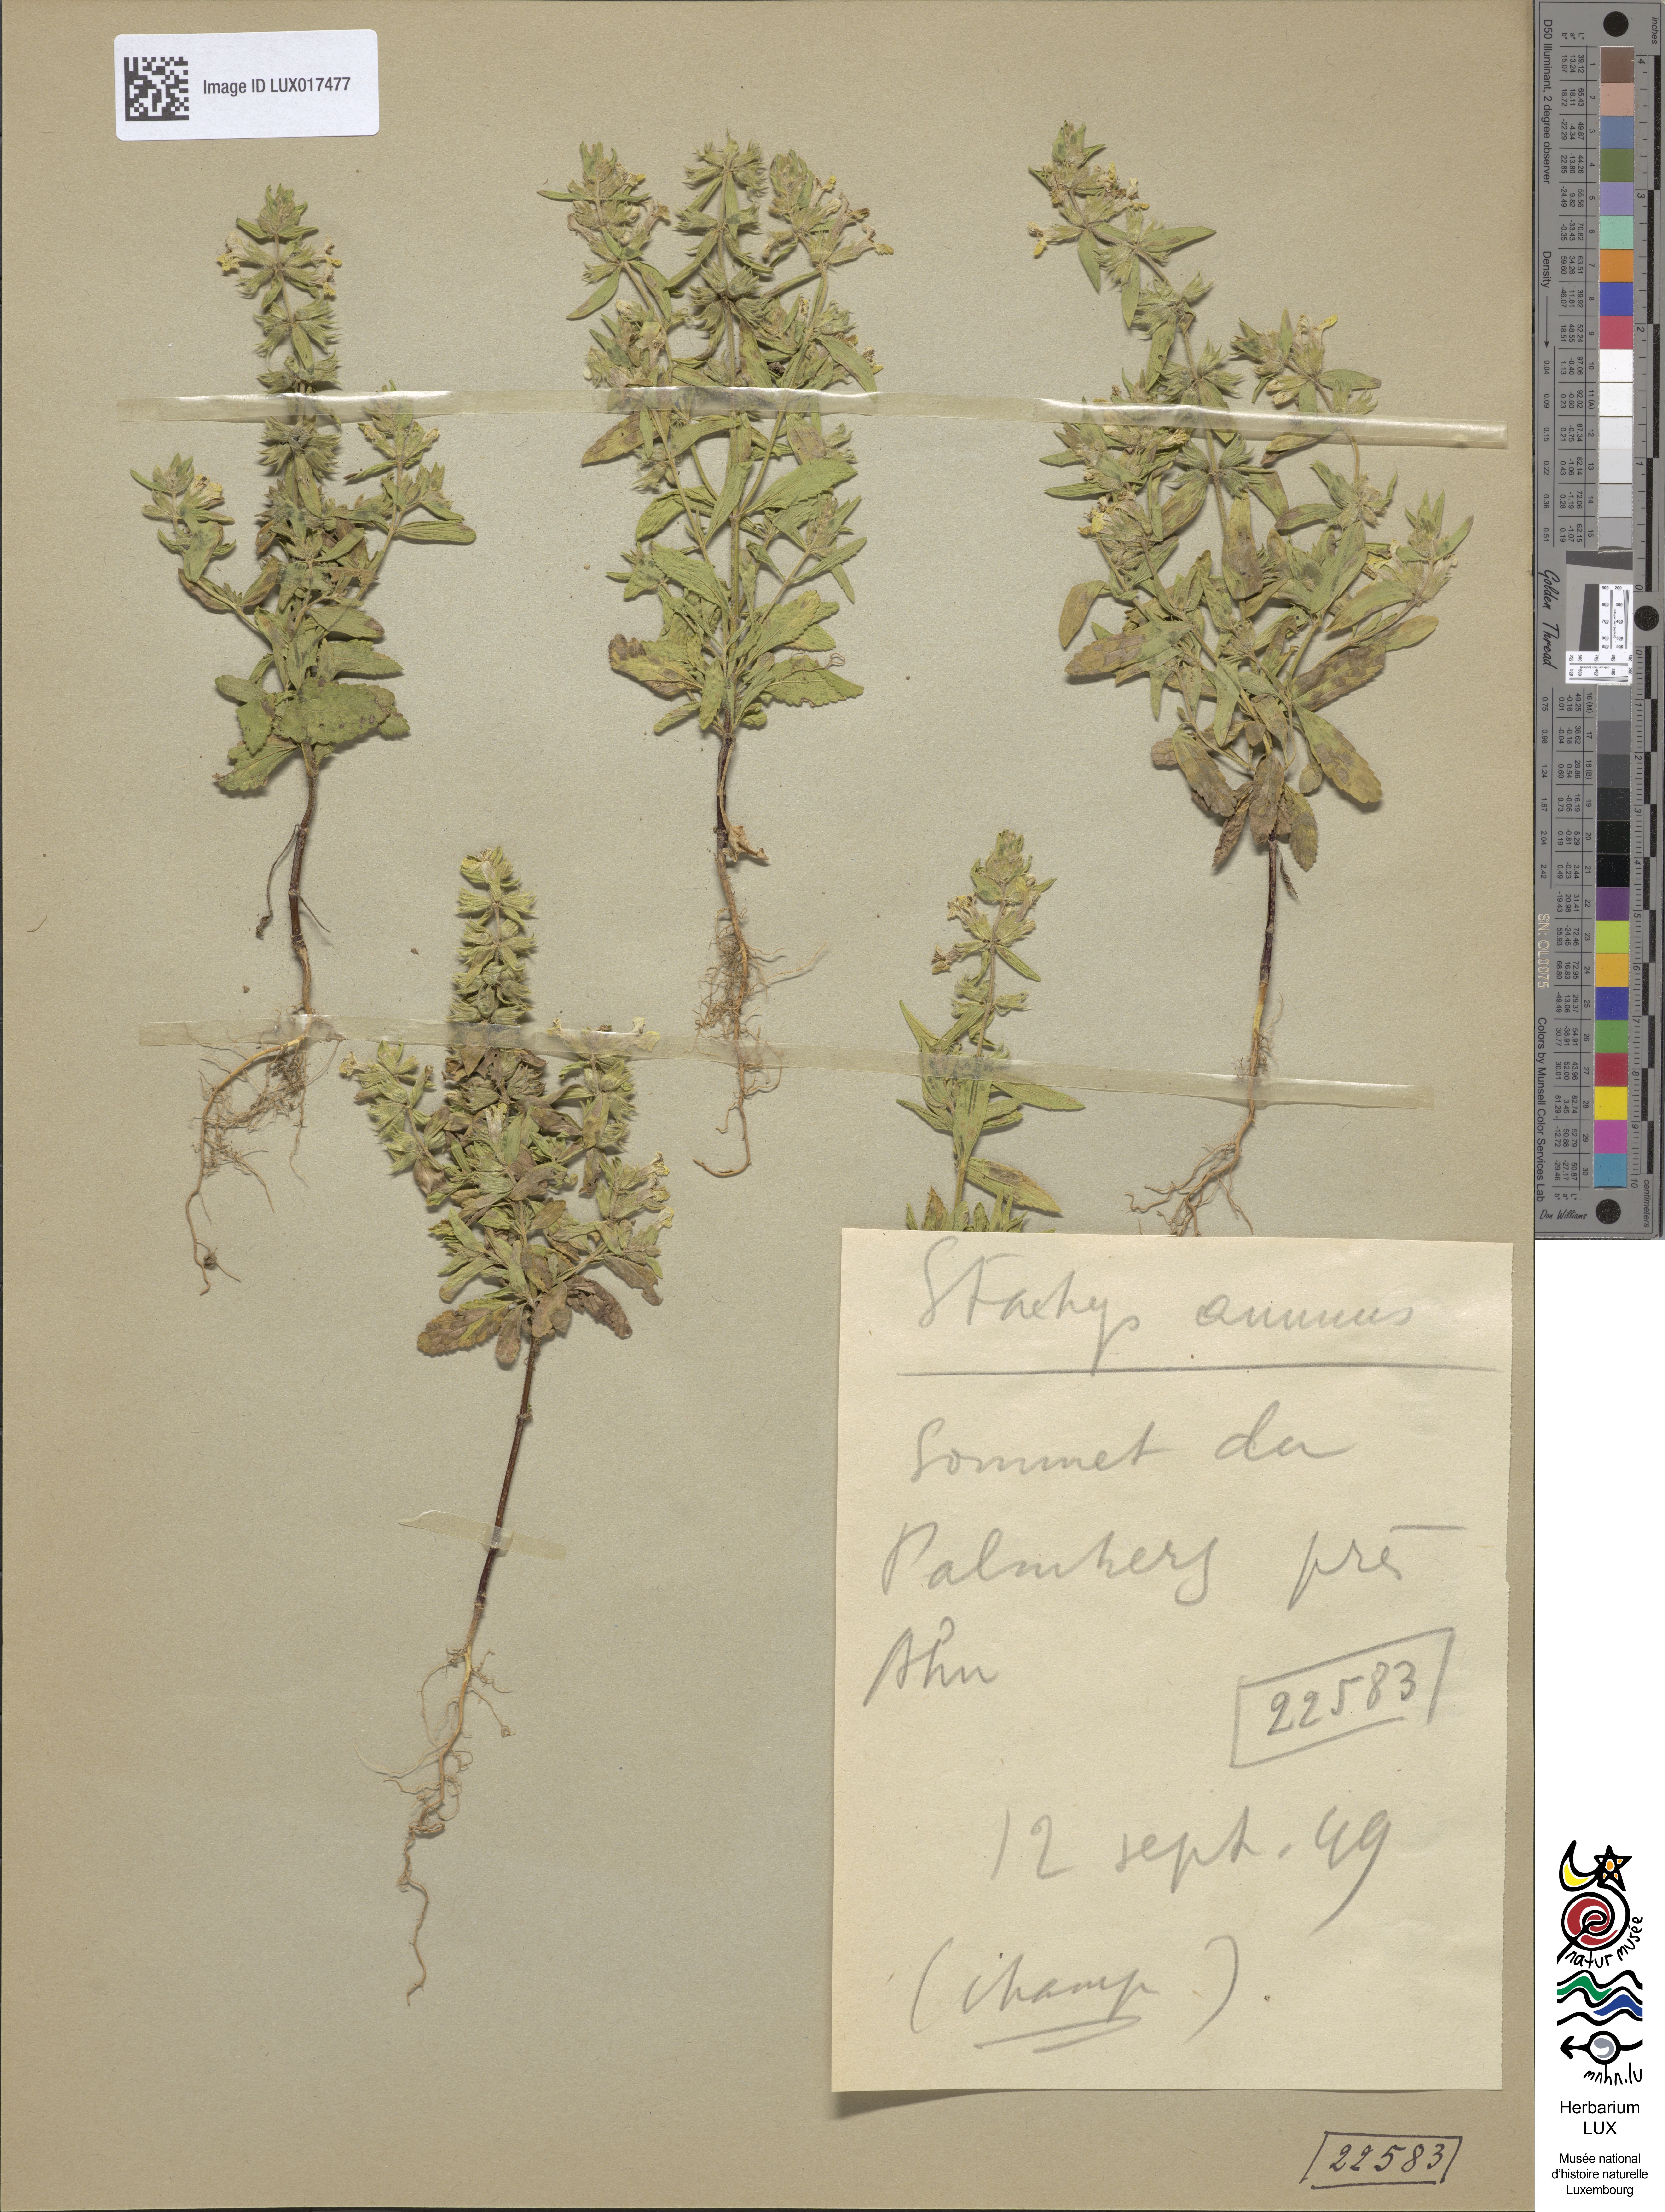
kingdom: Plantae
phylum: Tracheophyta
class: Magnoliopsida
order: Lamiales
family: Lamiaceae
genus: Stachys
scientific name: Stachys annua
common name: Annual yellow-woundwort
